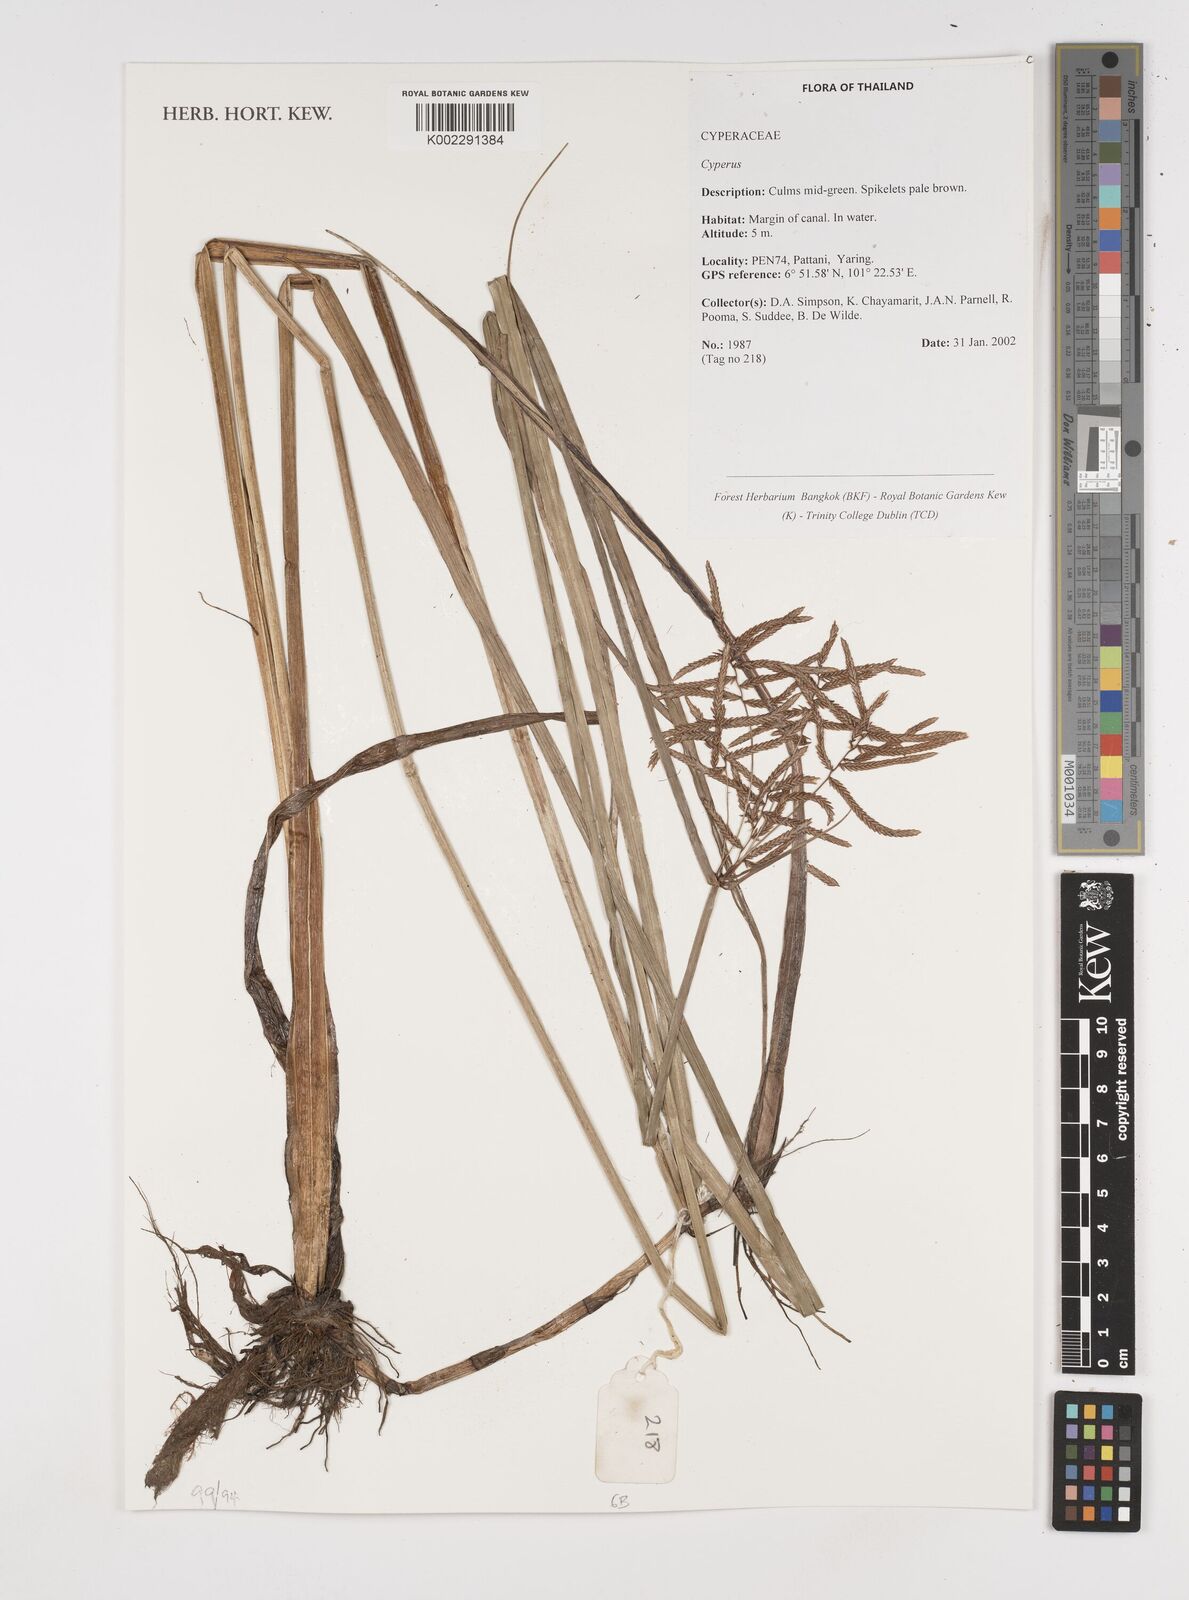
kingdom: Plantae
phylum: Tracheophyta
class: Liliopsida
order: Poales
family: Cyperaceae
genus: Cyperus
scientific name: Cyperus
